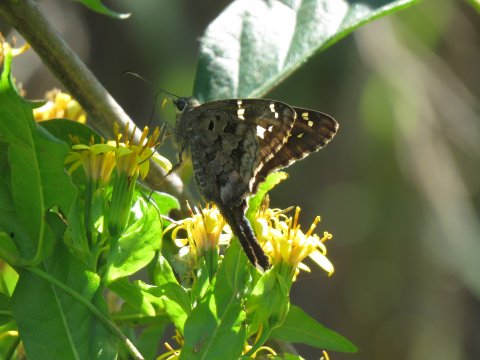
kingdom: Animalia
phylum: Arthropoda
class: Insecta
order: Lepidoptera
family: Hesperiidae
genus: Urbanus
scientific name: Urbanus dorantes
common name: Dorantes Longtail
